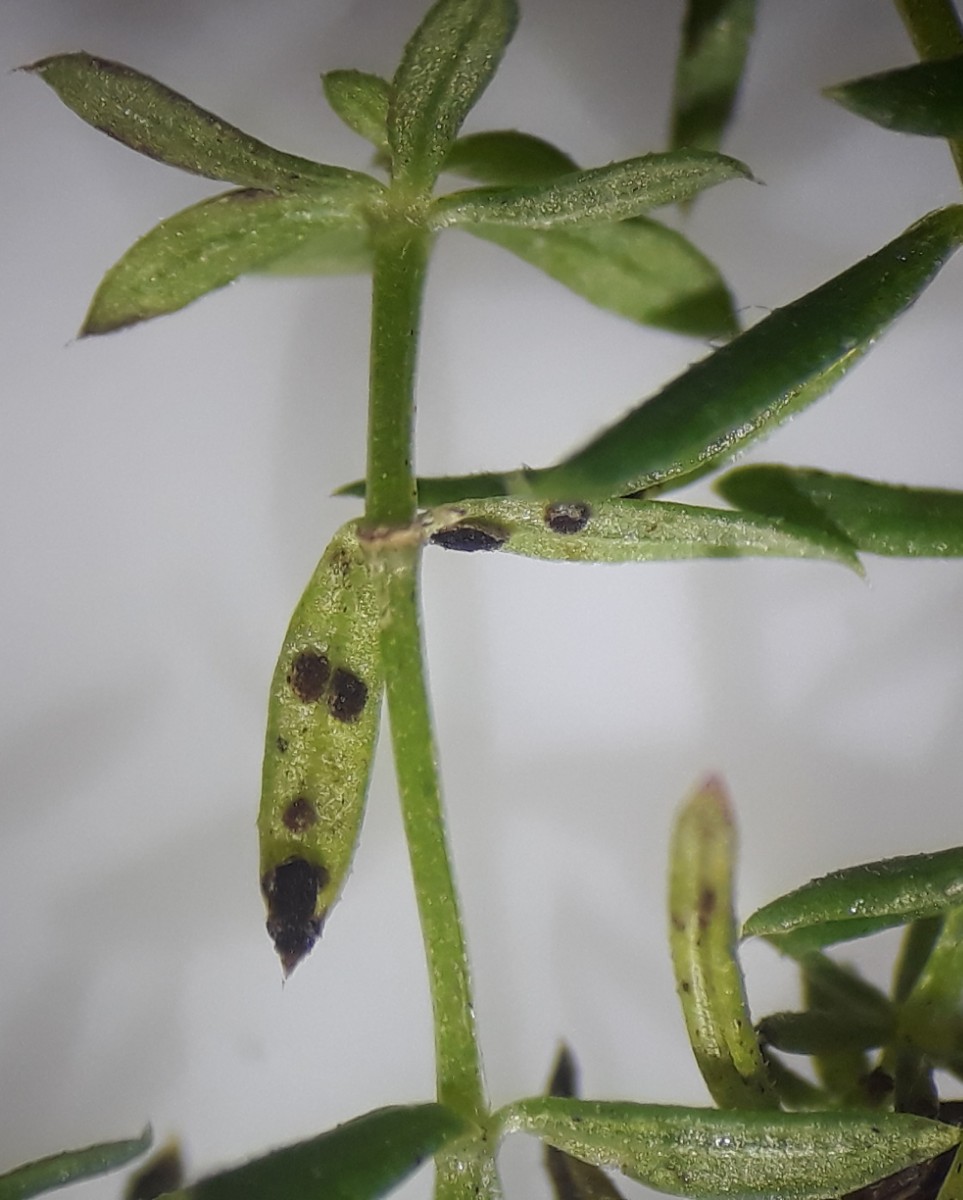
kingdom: Fungi
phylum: Basidiomycota
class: Pucciniomycetes
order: Pucciniales
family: Pucciniaceae
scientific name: Pucciniaceae
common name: rustsvampfamilien
